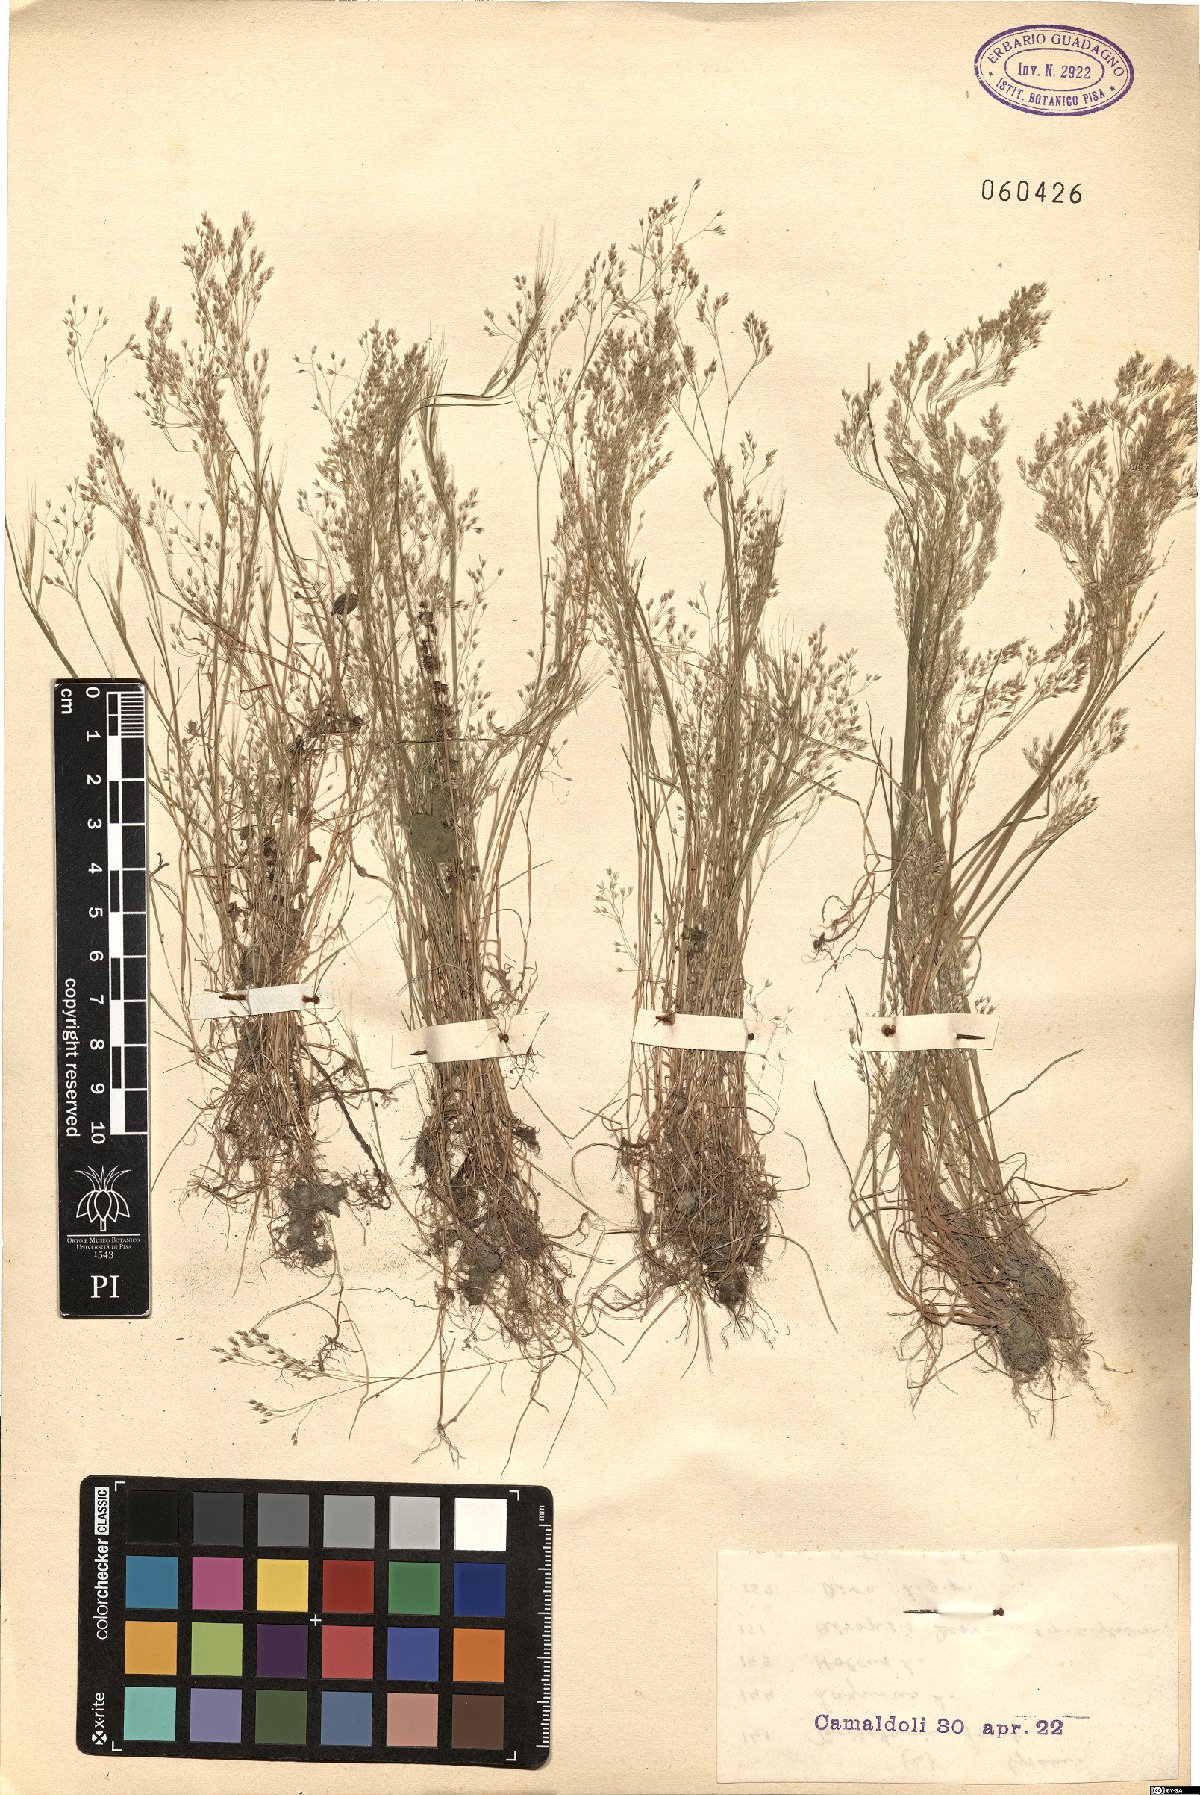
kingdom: Plantae
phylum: Tracheophyta
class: Liliopsida
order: Poales
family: Poaceae
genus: Aira
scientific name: Aira cupaniana
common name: Silver hairgrass
